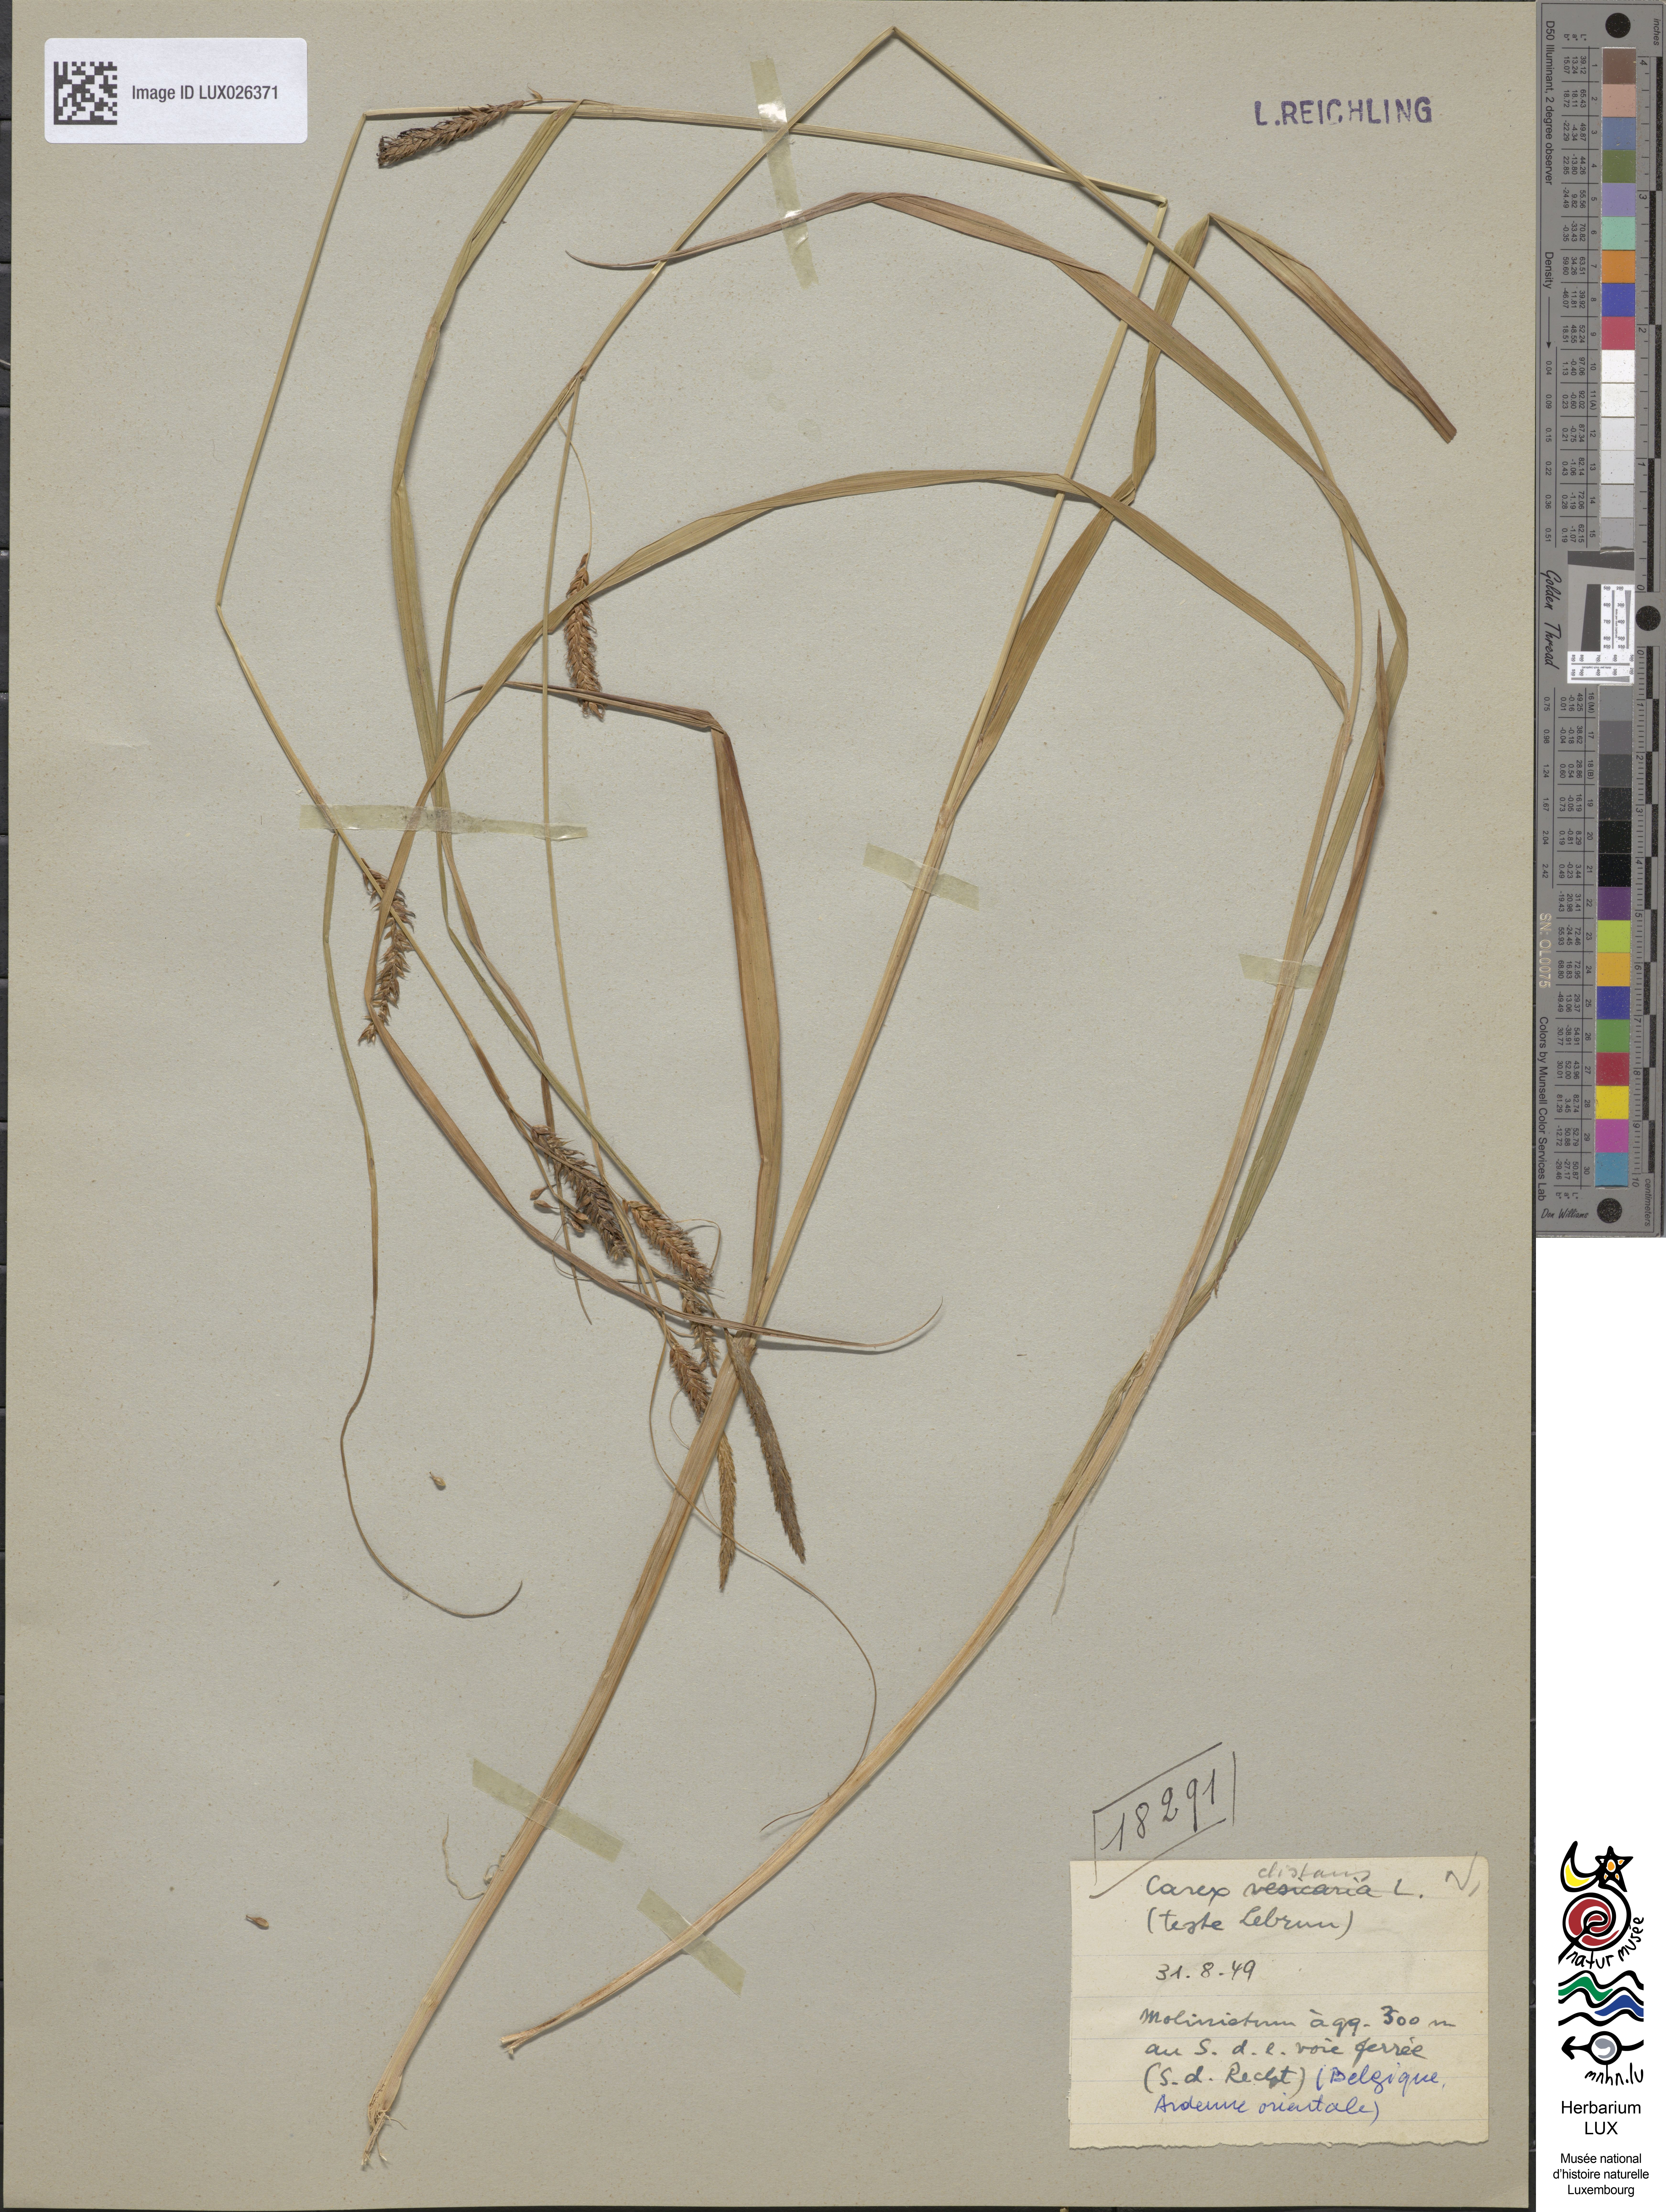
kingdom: Plantae
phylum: Tracheophyta
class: Liliopsida
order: Poales
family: Cyperaceae
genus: Carex
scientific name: Carex vesicaria
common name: Bladder-sedge
